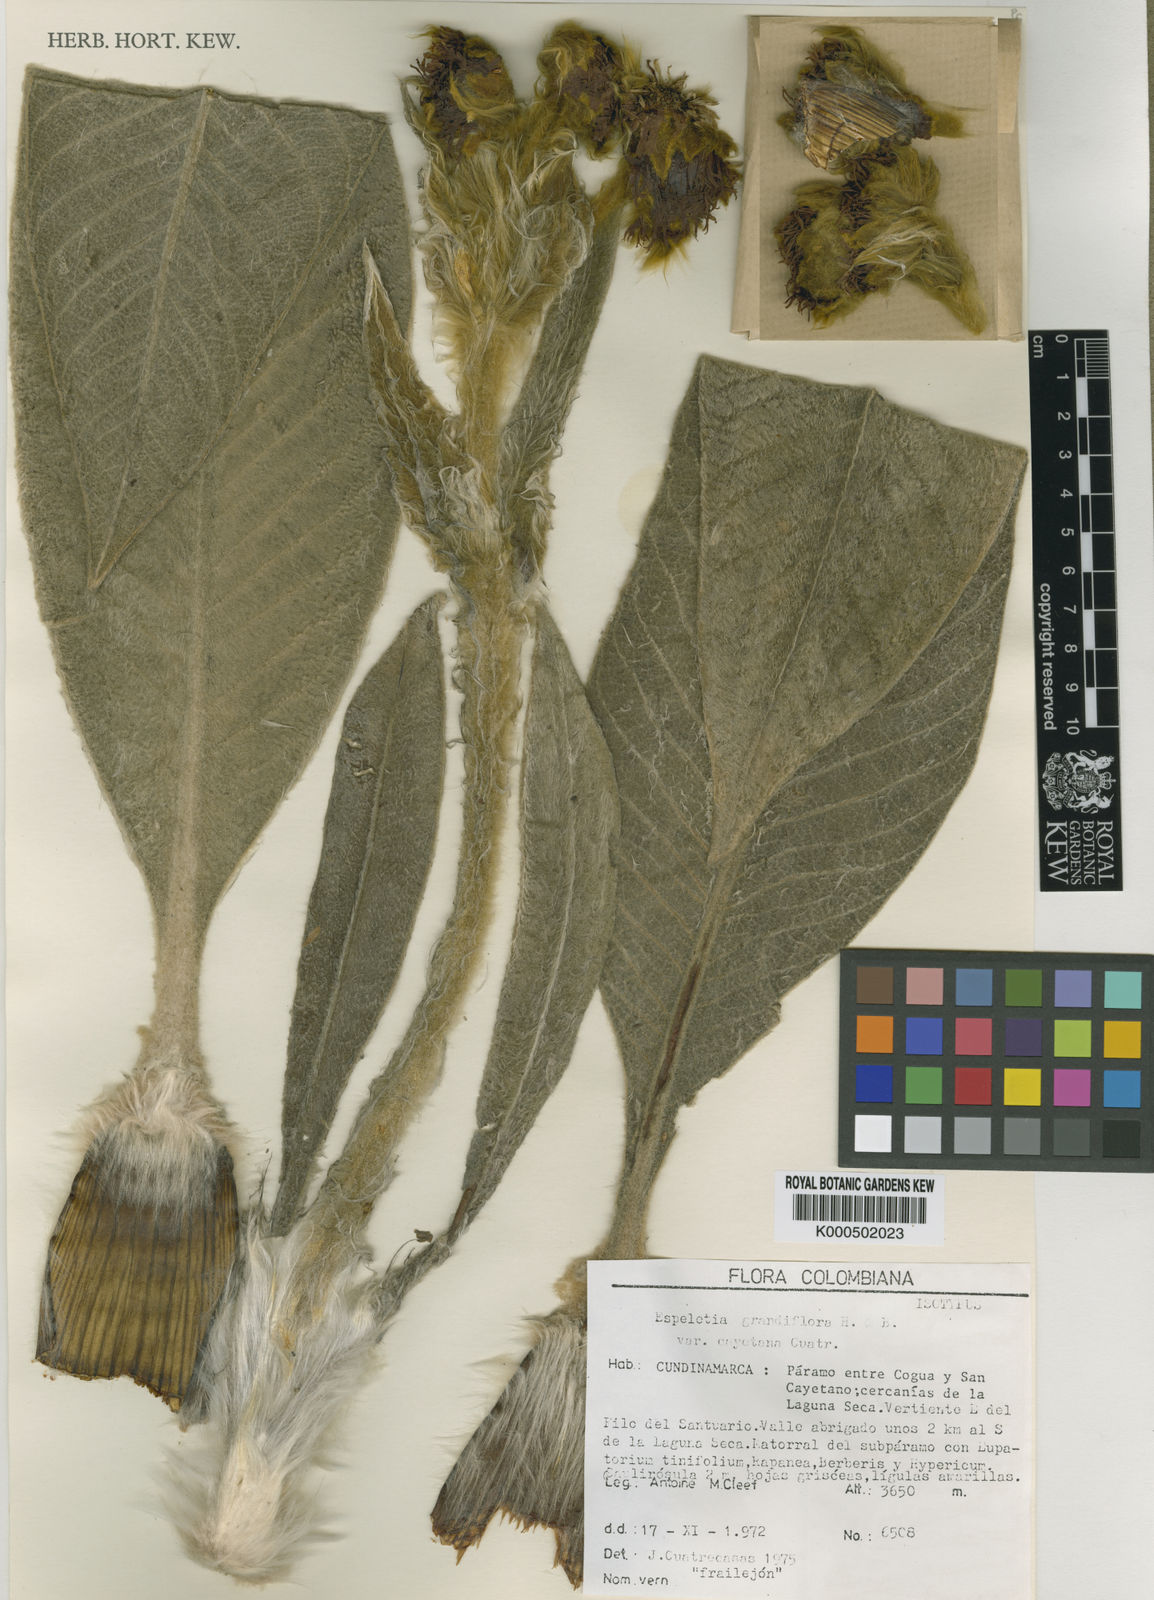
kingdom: Plantae
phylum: Tracheophyta
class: Magnoliopsida
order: Asterales
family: Asteraceae
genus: Espeletia
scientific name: Espeletia cayetana
